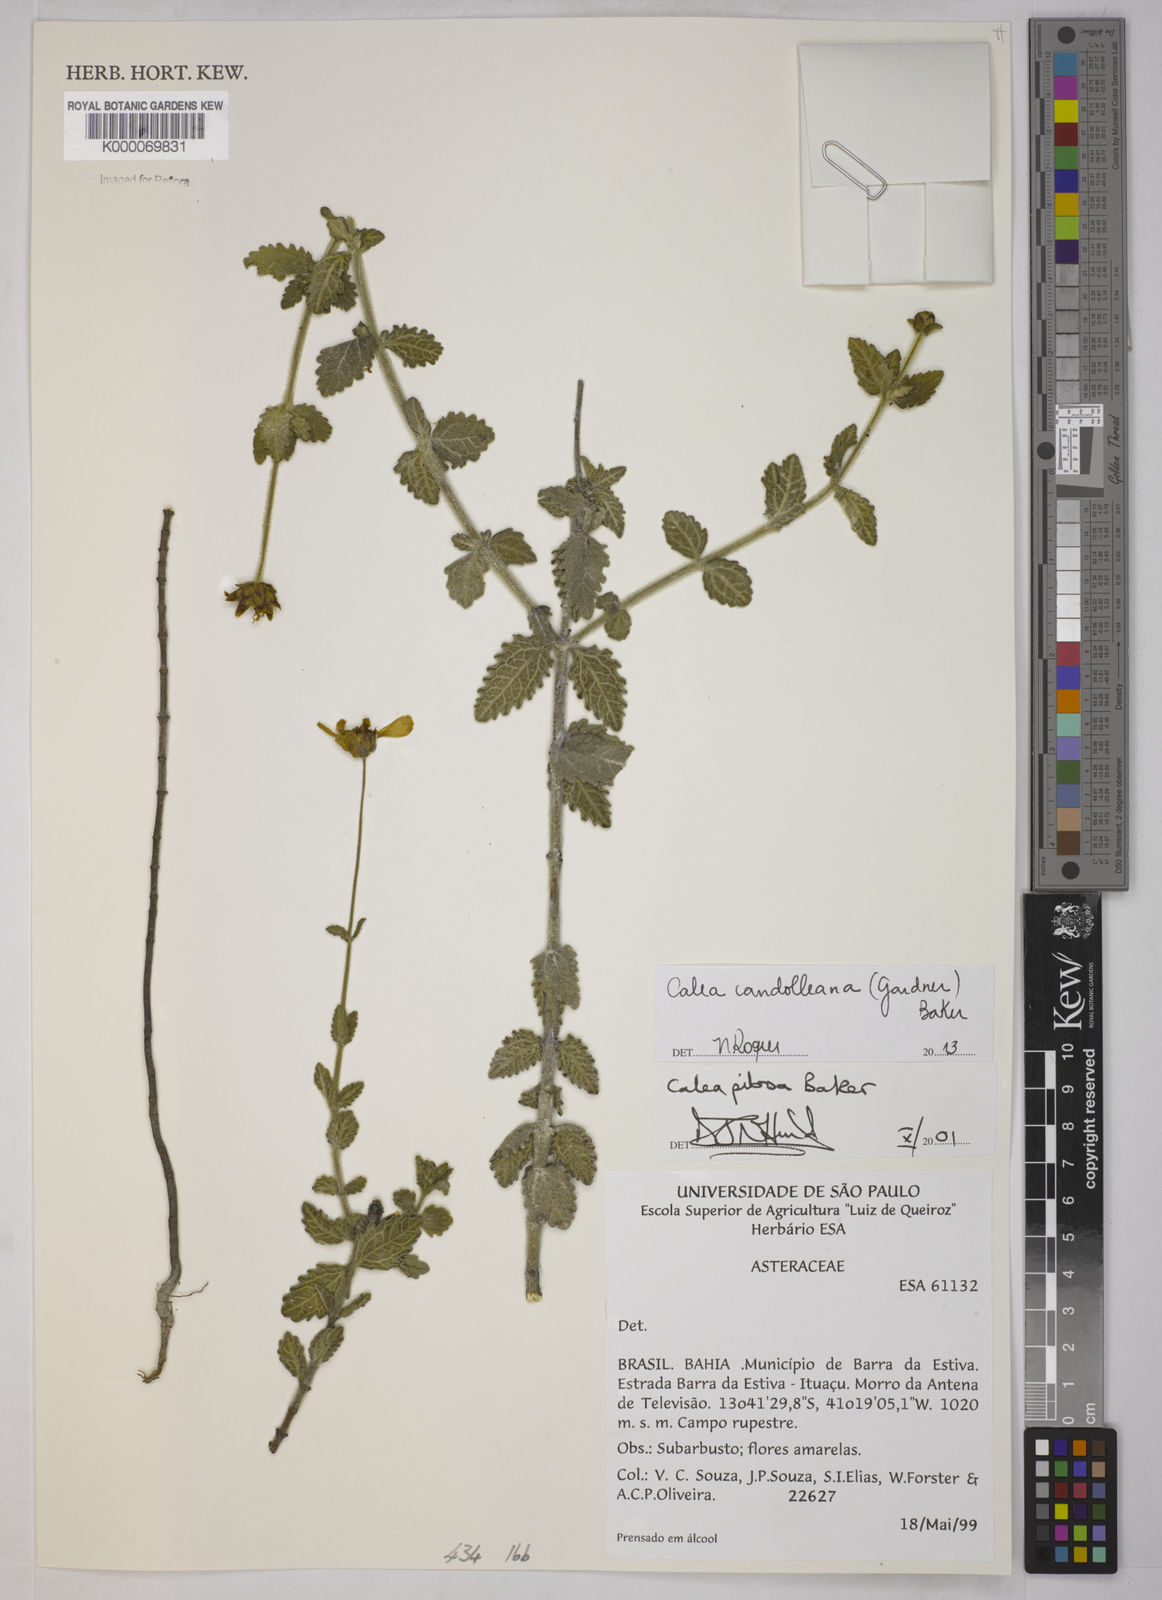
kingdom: Plantae
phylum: Tracheophyta
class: Magnoliopsida
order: Asterales
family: Asteraceae
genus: Calea
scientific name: Calea pilosa
